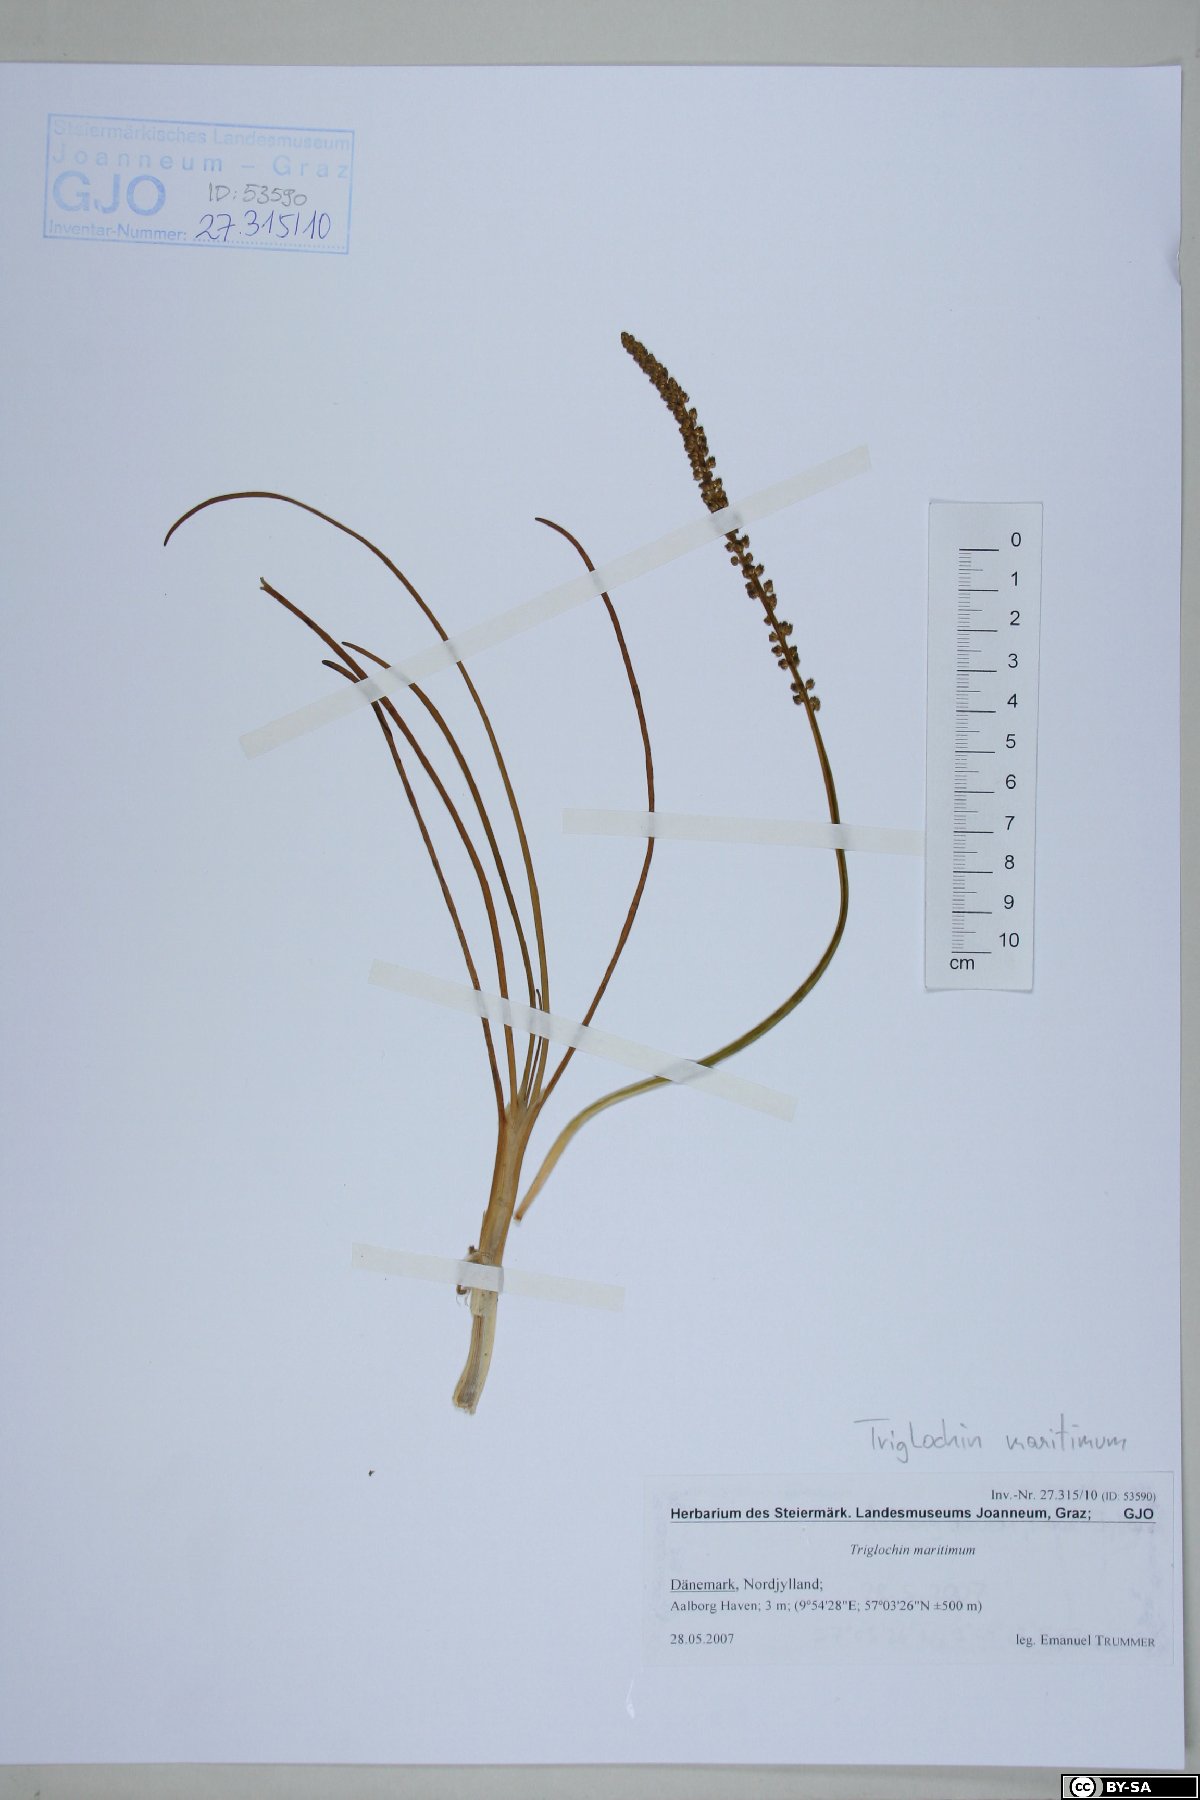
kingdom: Plantae
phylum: Tracheophyta
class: Liliopsida
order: Alismatales
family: Juncaginaceae
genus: Triglochin
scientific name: Triglochin maritima
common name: Sea arrowgrass
